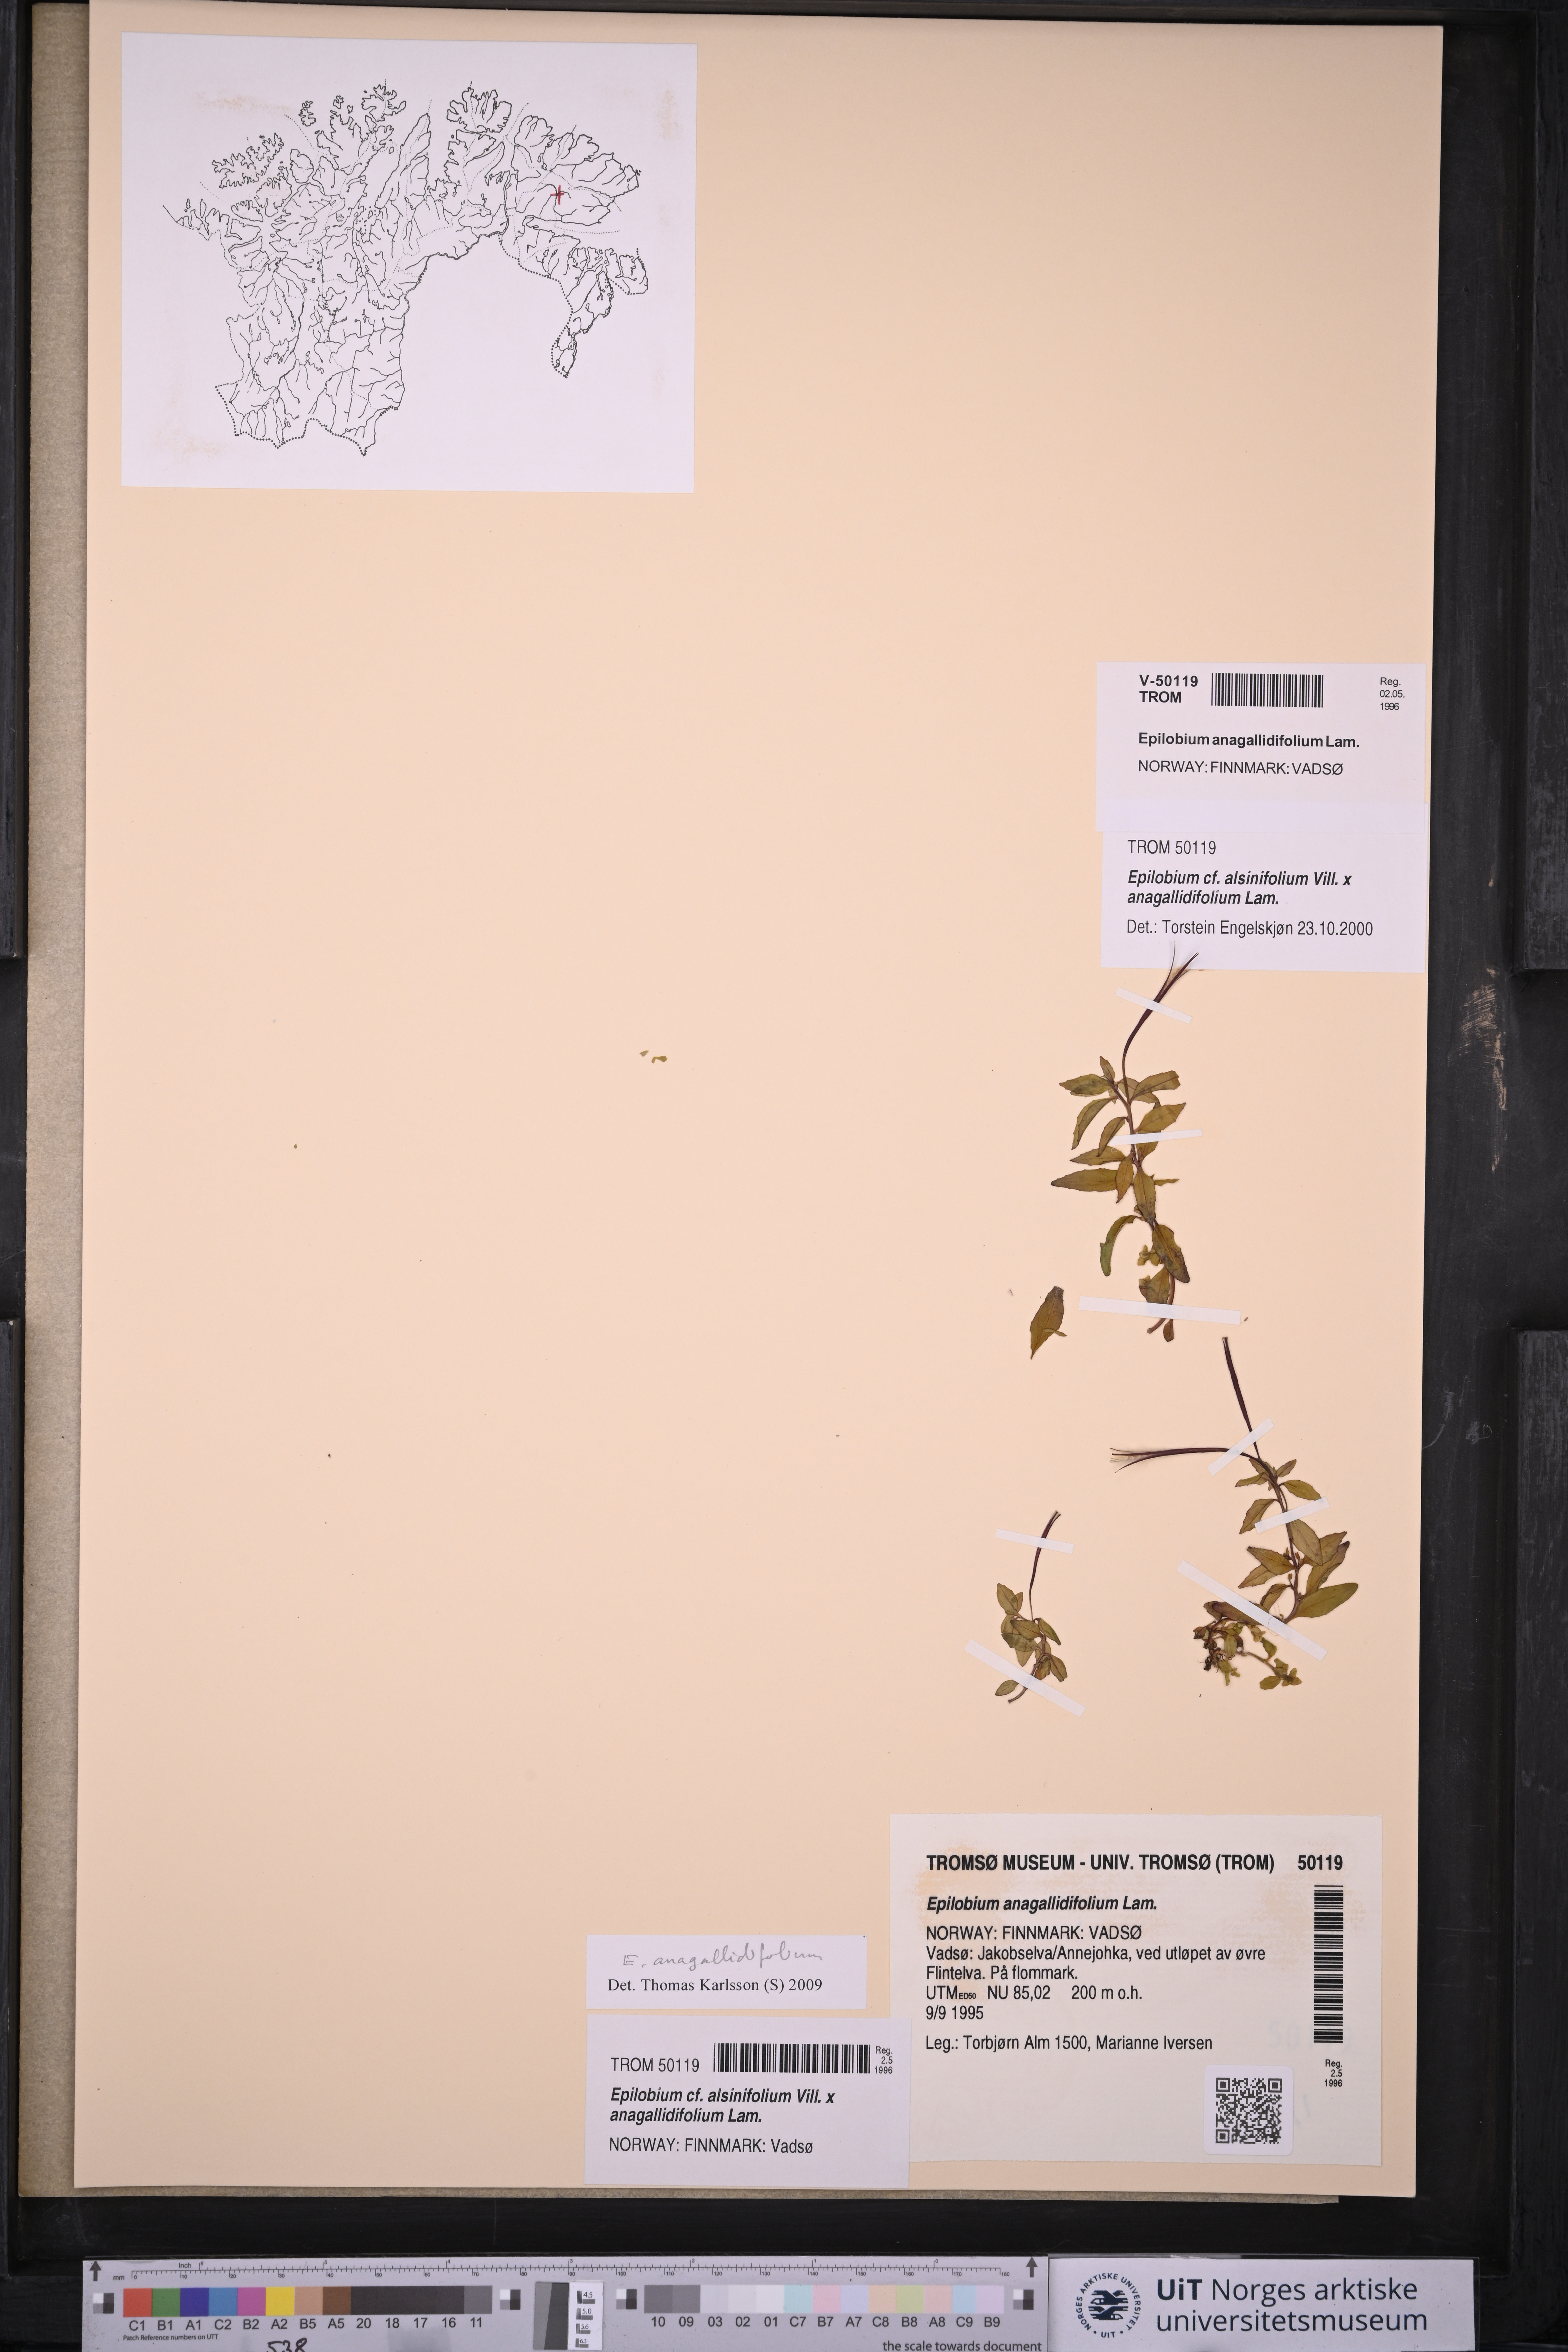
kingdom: Plantae
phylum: Tracheophyta
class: Magnoliopsida
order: Myrtales
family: Onagraceae
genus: Epilobium
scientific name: Epilobium anagallidifolium
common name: Alpine willowherb
